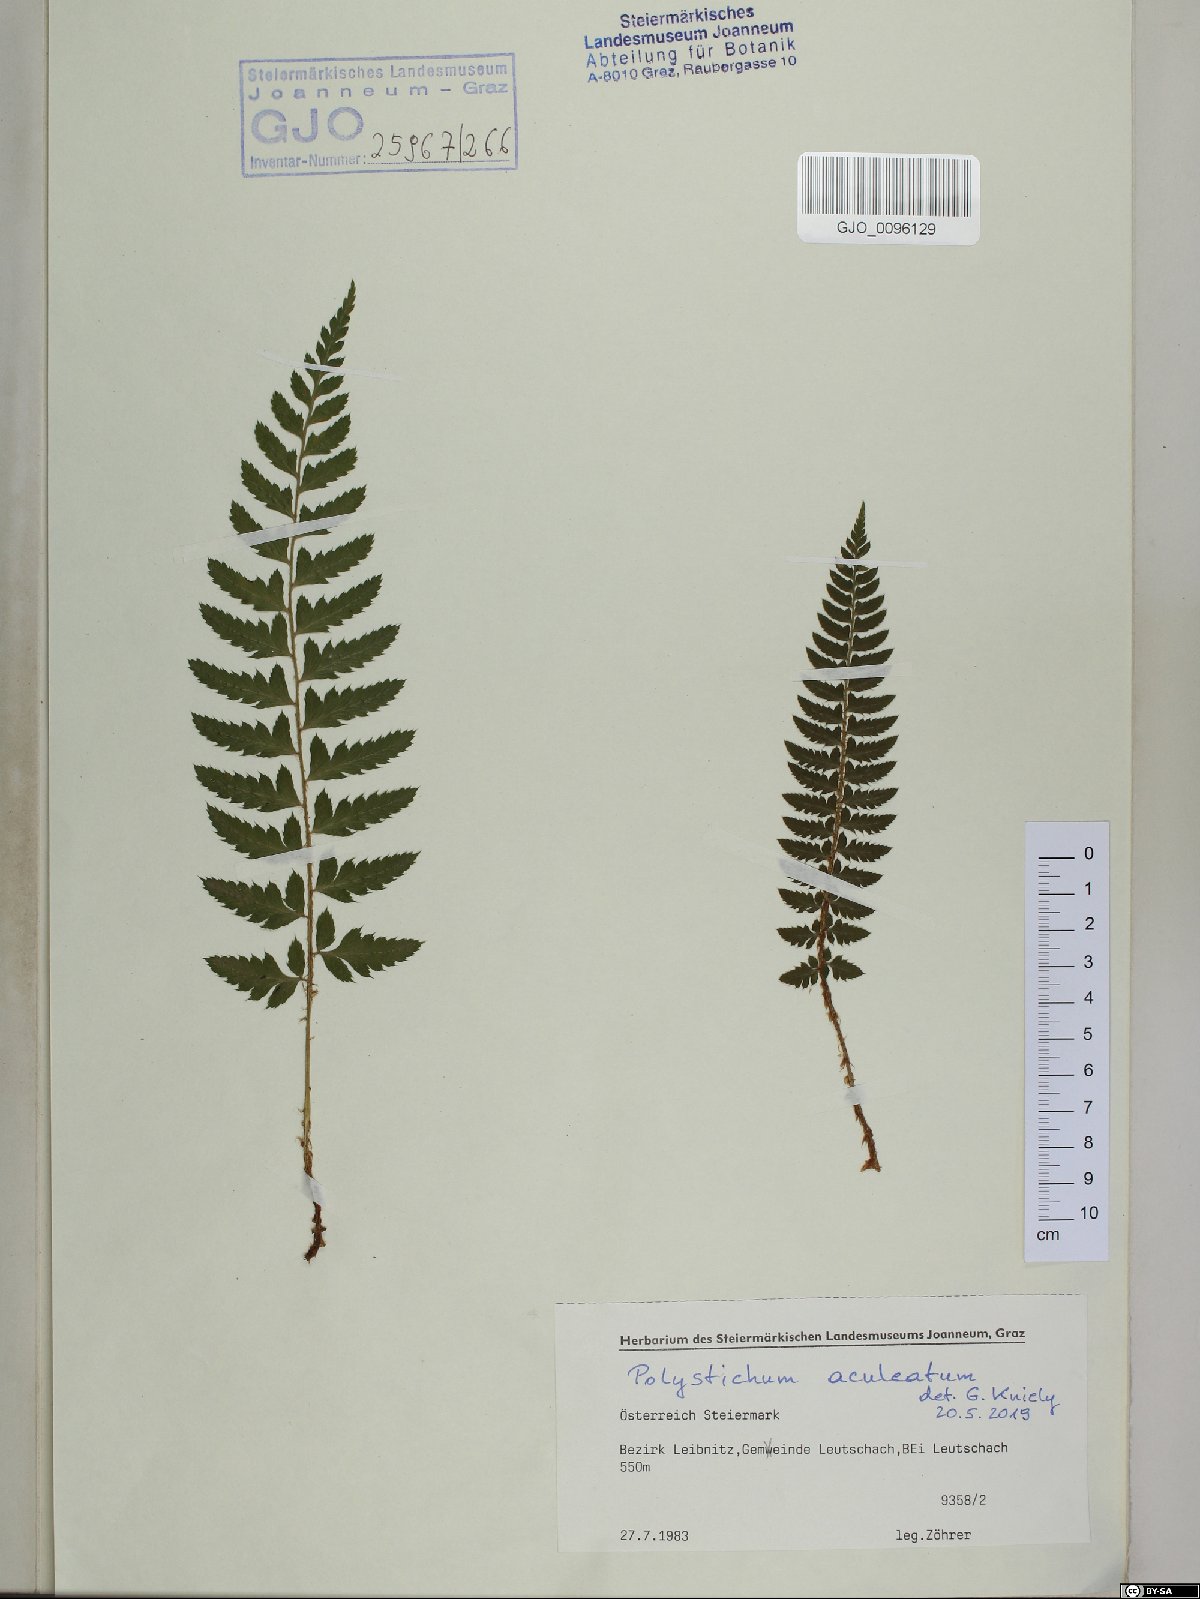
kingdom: Plantae
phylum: Tracheophyta
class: Polypodiopsida
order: Polypodiales
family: Dryopteridaceae
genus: Polystichum
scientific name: Polystichum aculeatum
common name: Hard shield-fern
